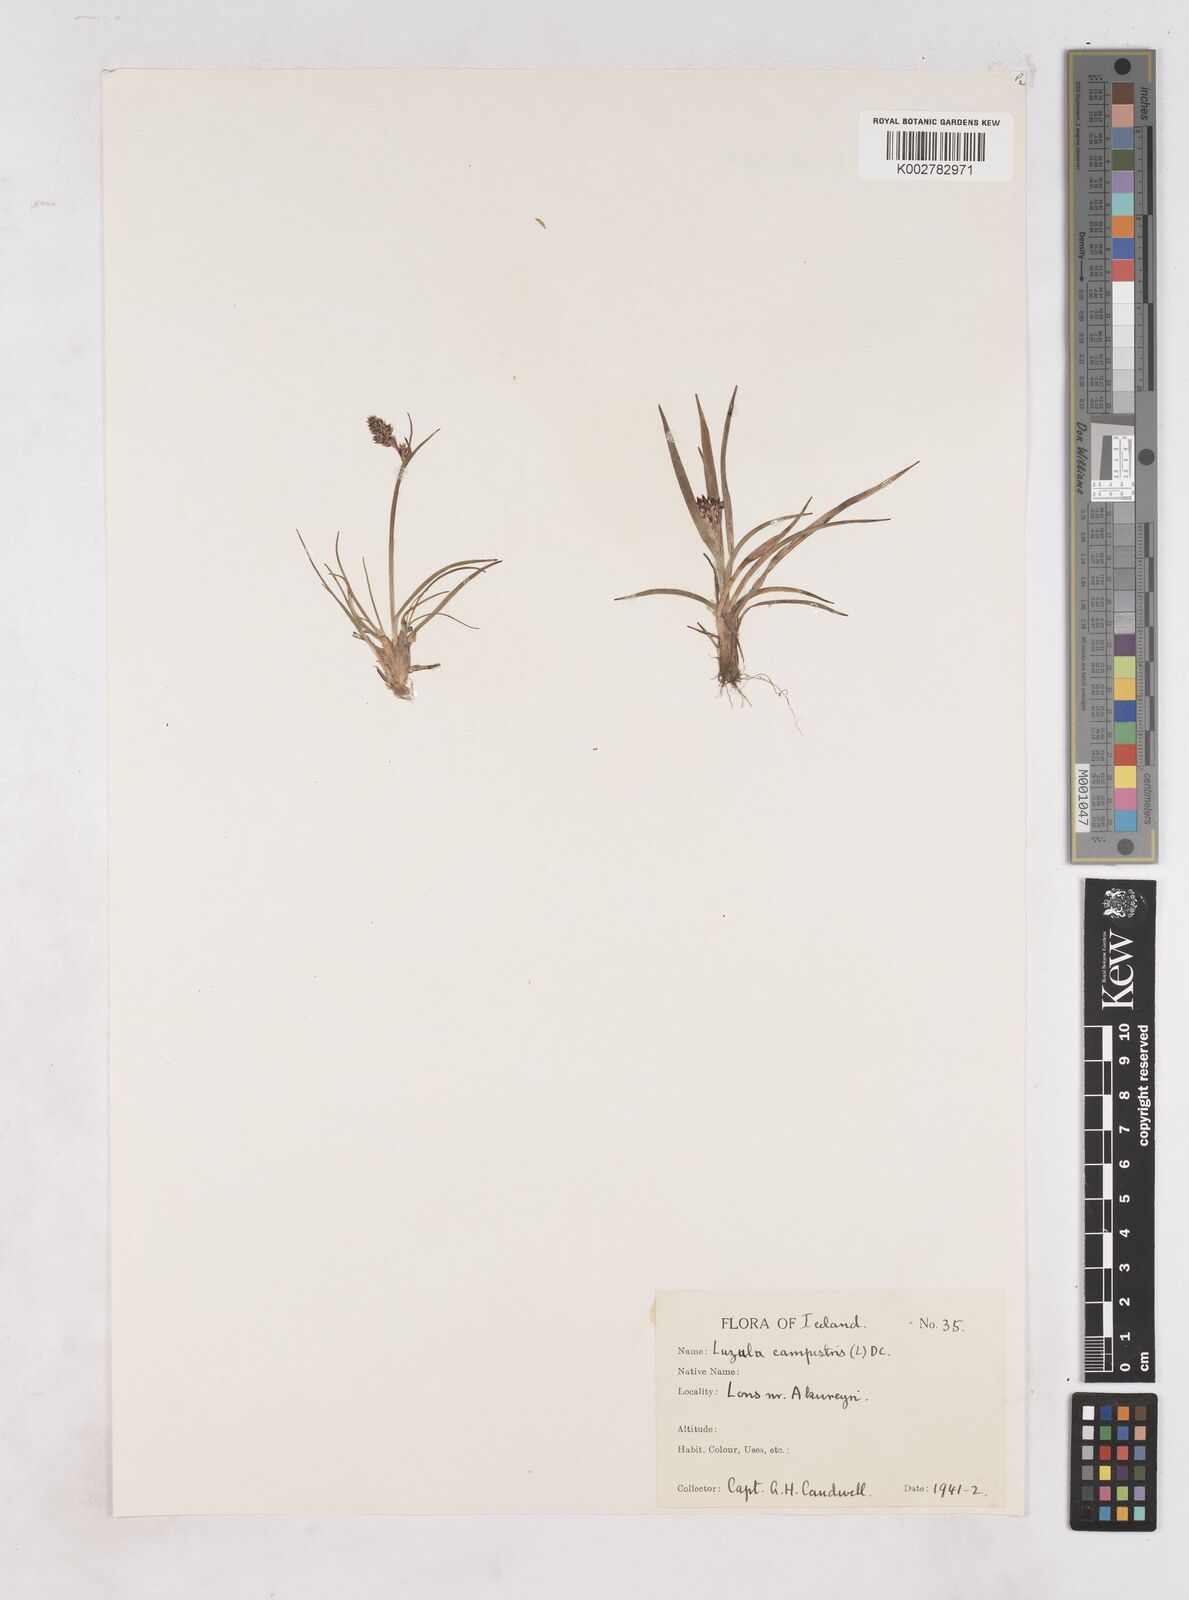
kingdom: Plantae
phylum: Tracheophyta
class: Liliopsida
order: Poales
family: Juncaceae
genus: Luzula
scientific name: Luzula campestris
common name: Field wood-rush
